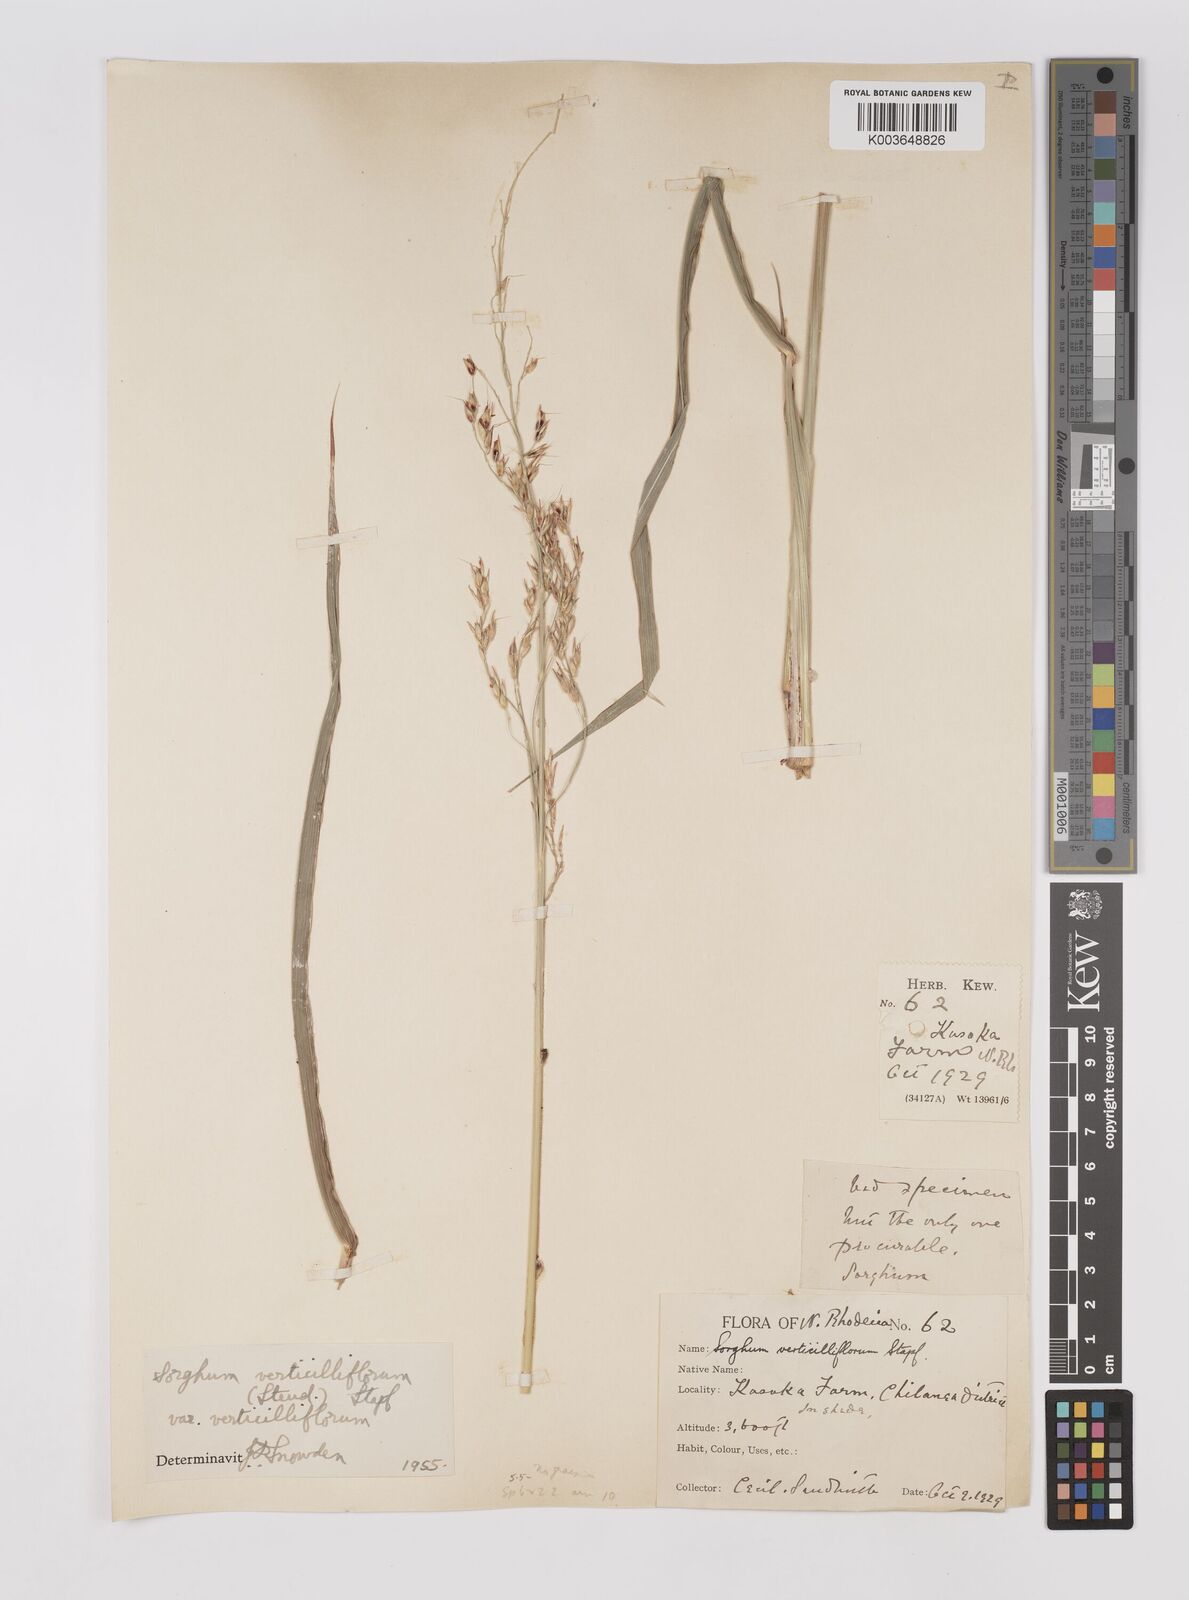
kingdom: Plantae
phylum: Tracheophyta
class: Liliopsida
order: Poales
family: Poaceae
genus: Sorghum
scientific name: Sorghum arundinaceum
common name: Sorghum
